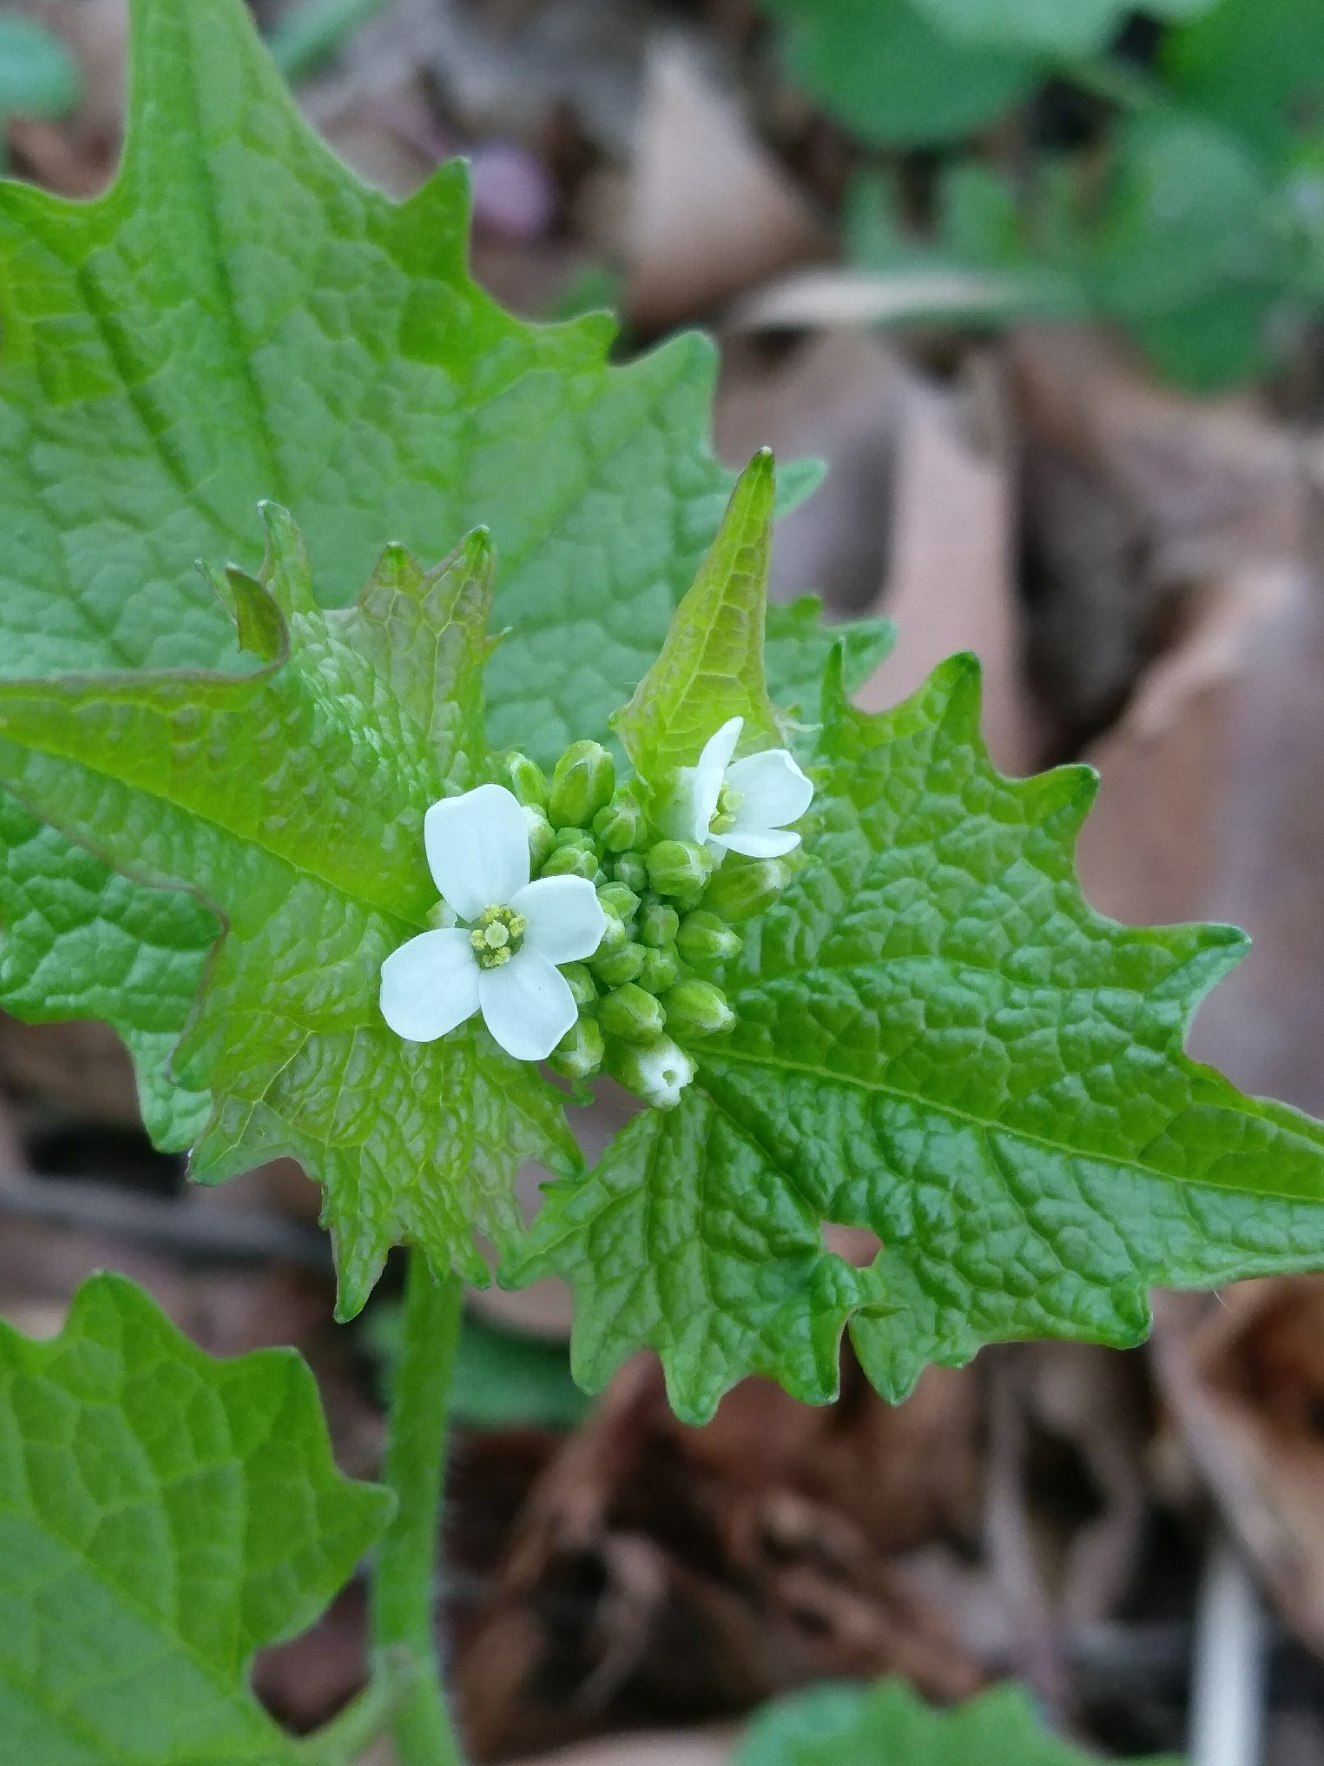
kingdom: Plantae
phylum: Tracheophyta
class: Magnoliopsida
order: Brassicales
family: Brassicaceae
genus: Alliaria
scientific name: Alliaria petiolata
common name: Løgkarse
